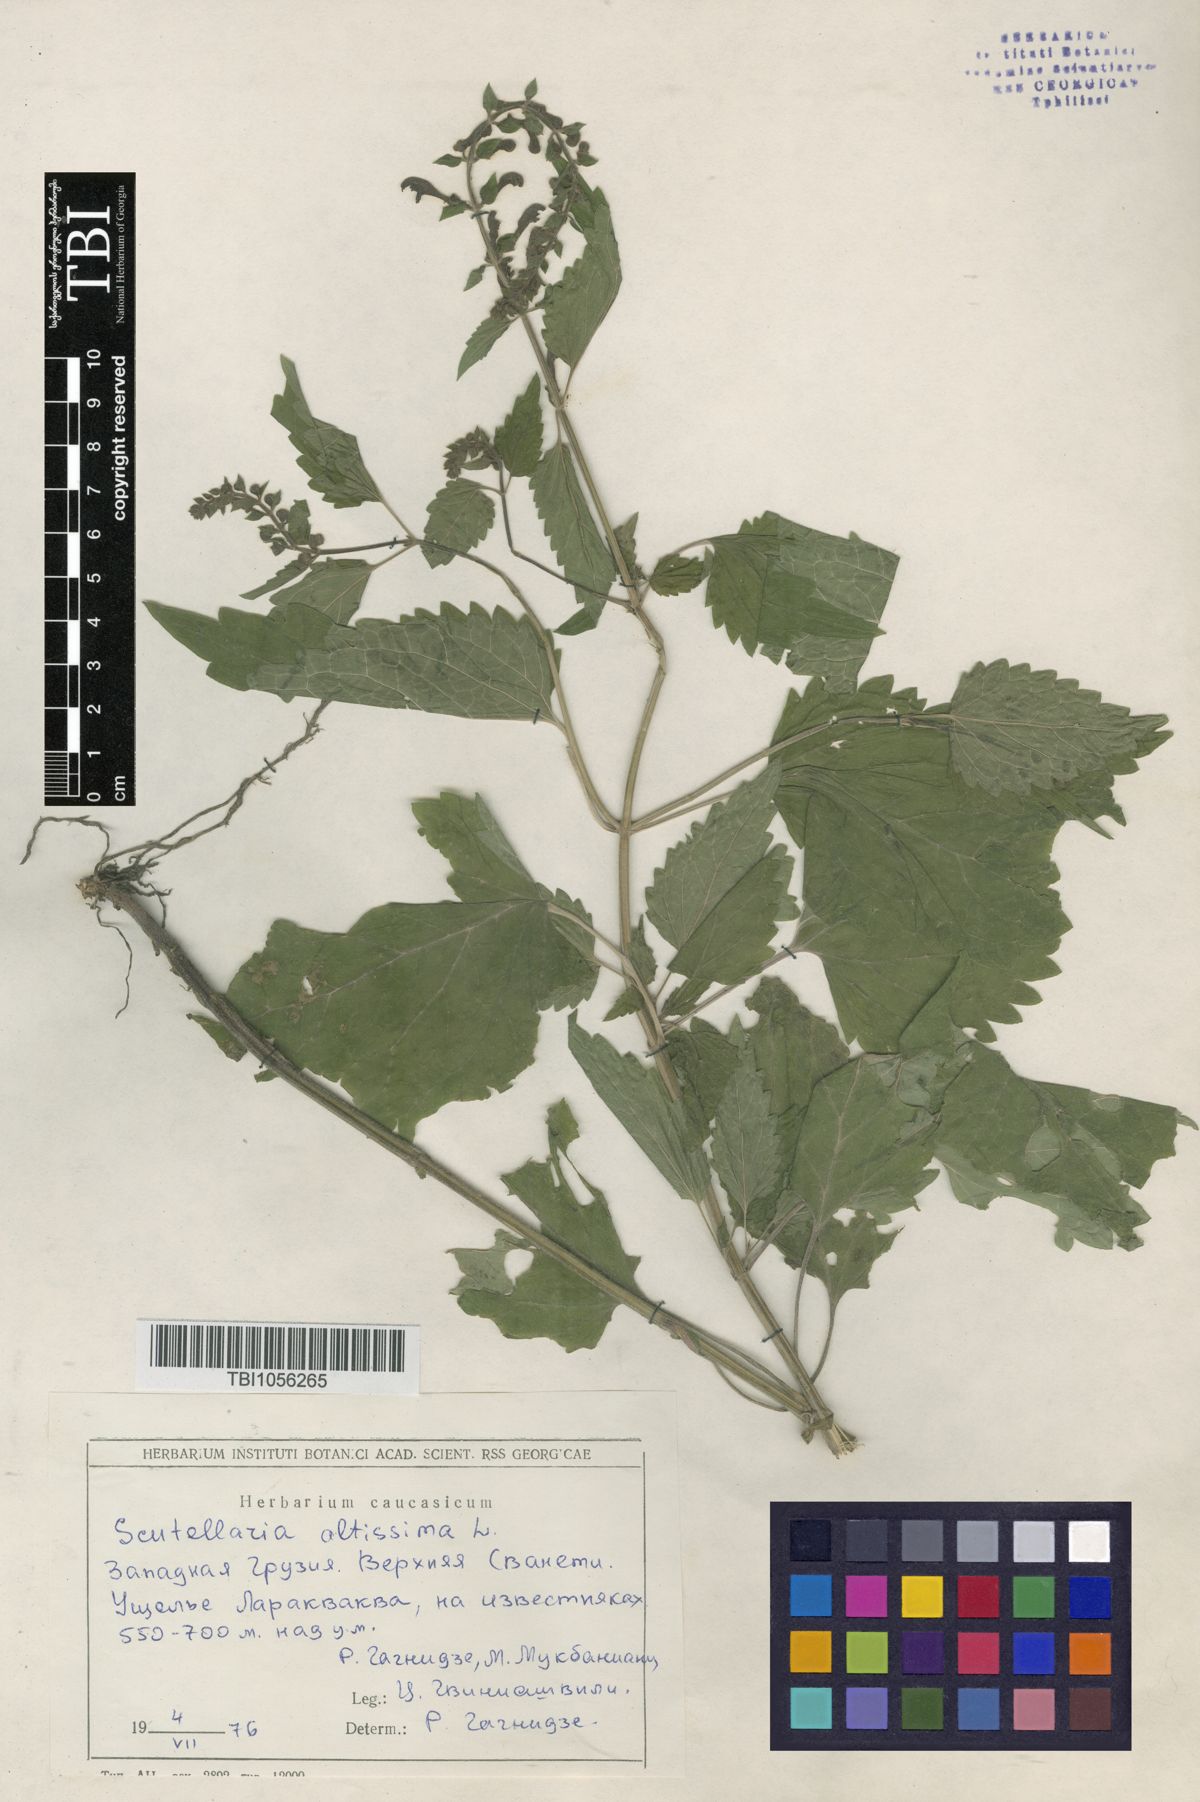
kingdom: Plantae
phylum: Tracheophyta
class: Magnoliopsida
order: Lamiales
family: Lamiaceae
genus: Scutellaria
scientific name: Scutellaria altissima
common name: Somerset skullcap
